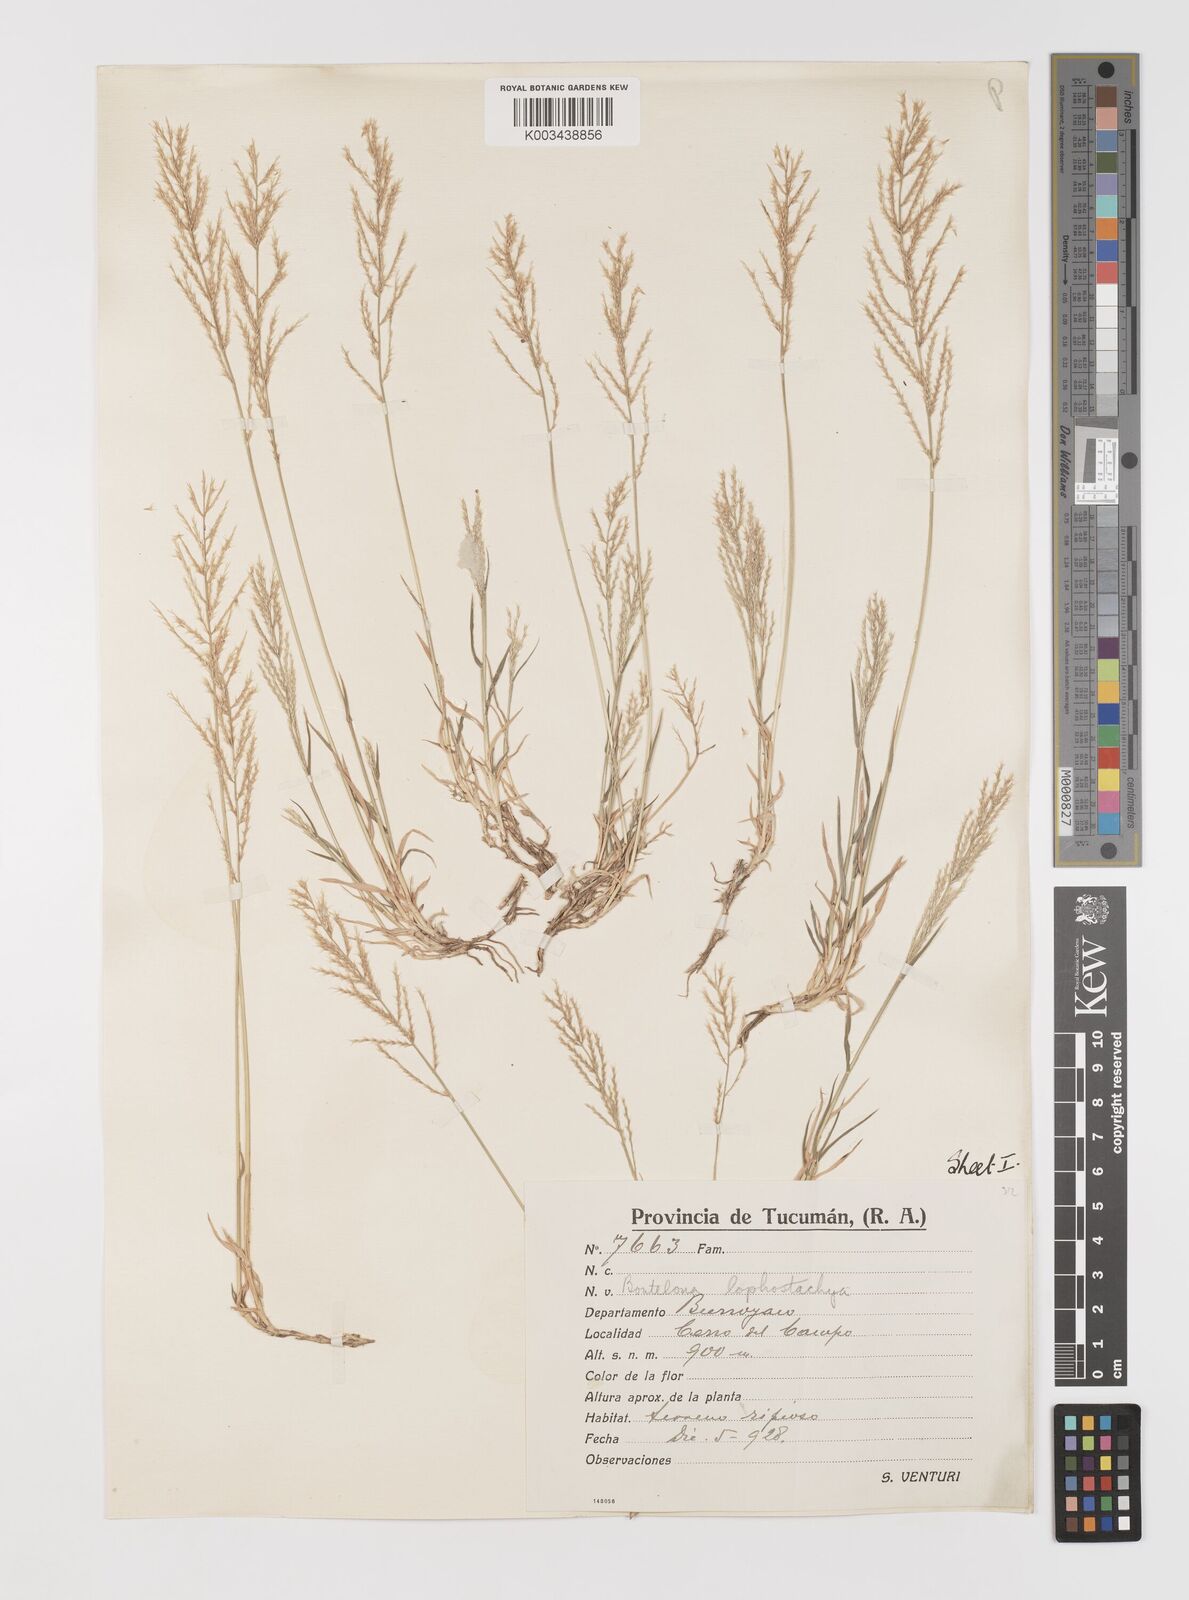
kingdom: Plantae
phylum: Tracheophyta
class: Liliopsida
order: Poales
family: Poaceae
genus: Neobouteloua
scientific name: Neobouteloua lophostachya
